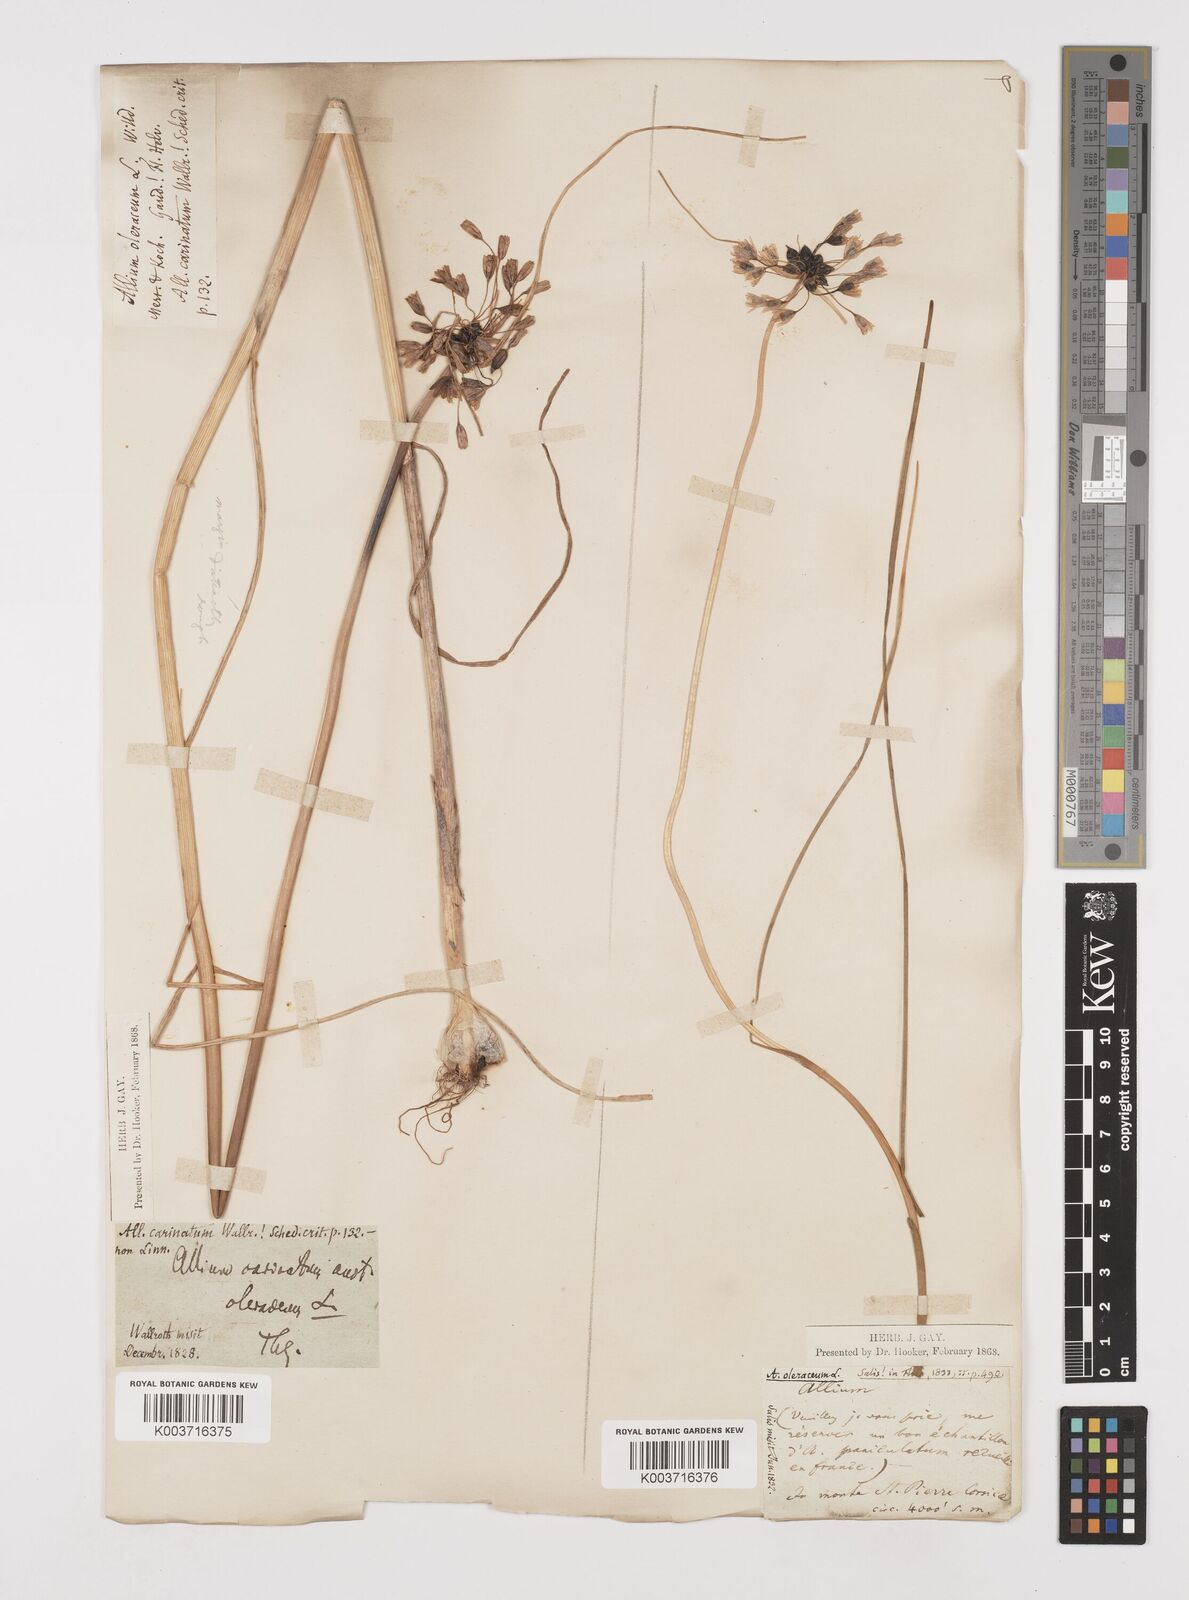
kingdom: Plantae
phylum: Tracheophyta
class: Liliopsida
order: Asparagales
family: Amaryllidaceae
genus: Allium
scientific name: Allium oleraceum
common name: Field garlic
